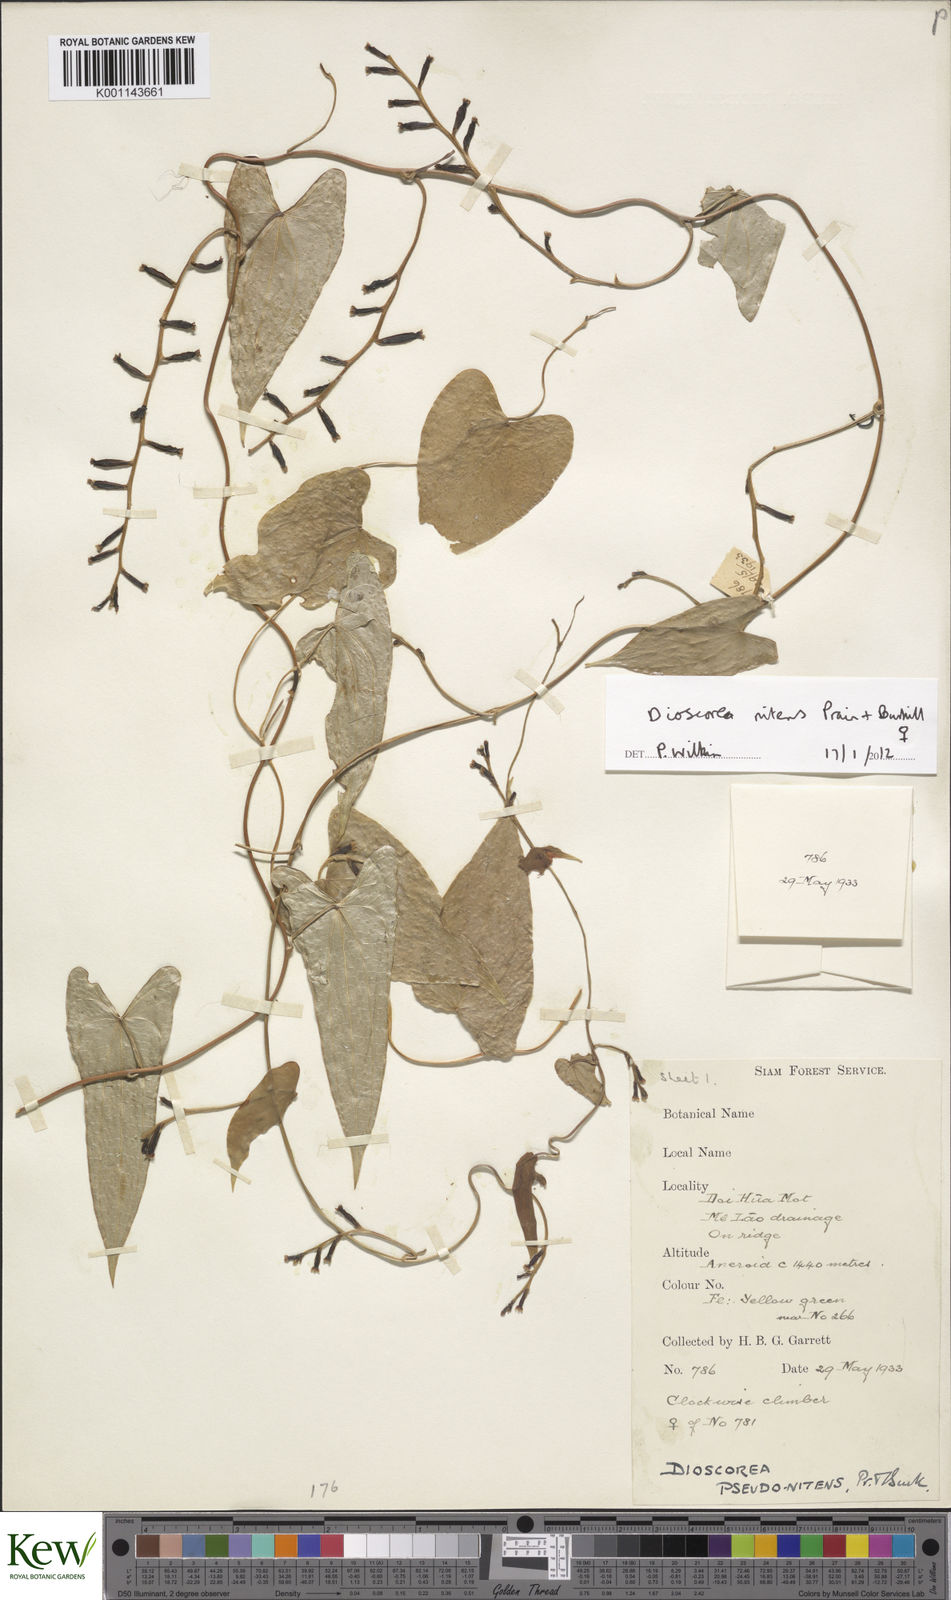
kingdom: Plantae
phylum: Tracheophyta
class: Liliopsida
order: Dioscoreales
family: Dioscoreaceae
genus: Dioscorea
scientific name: Dioscorea nitens
